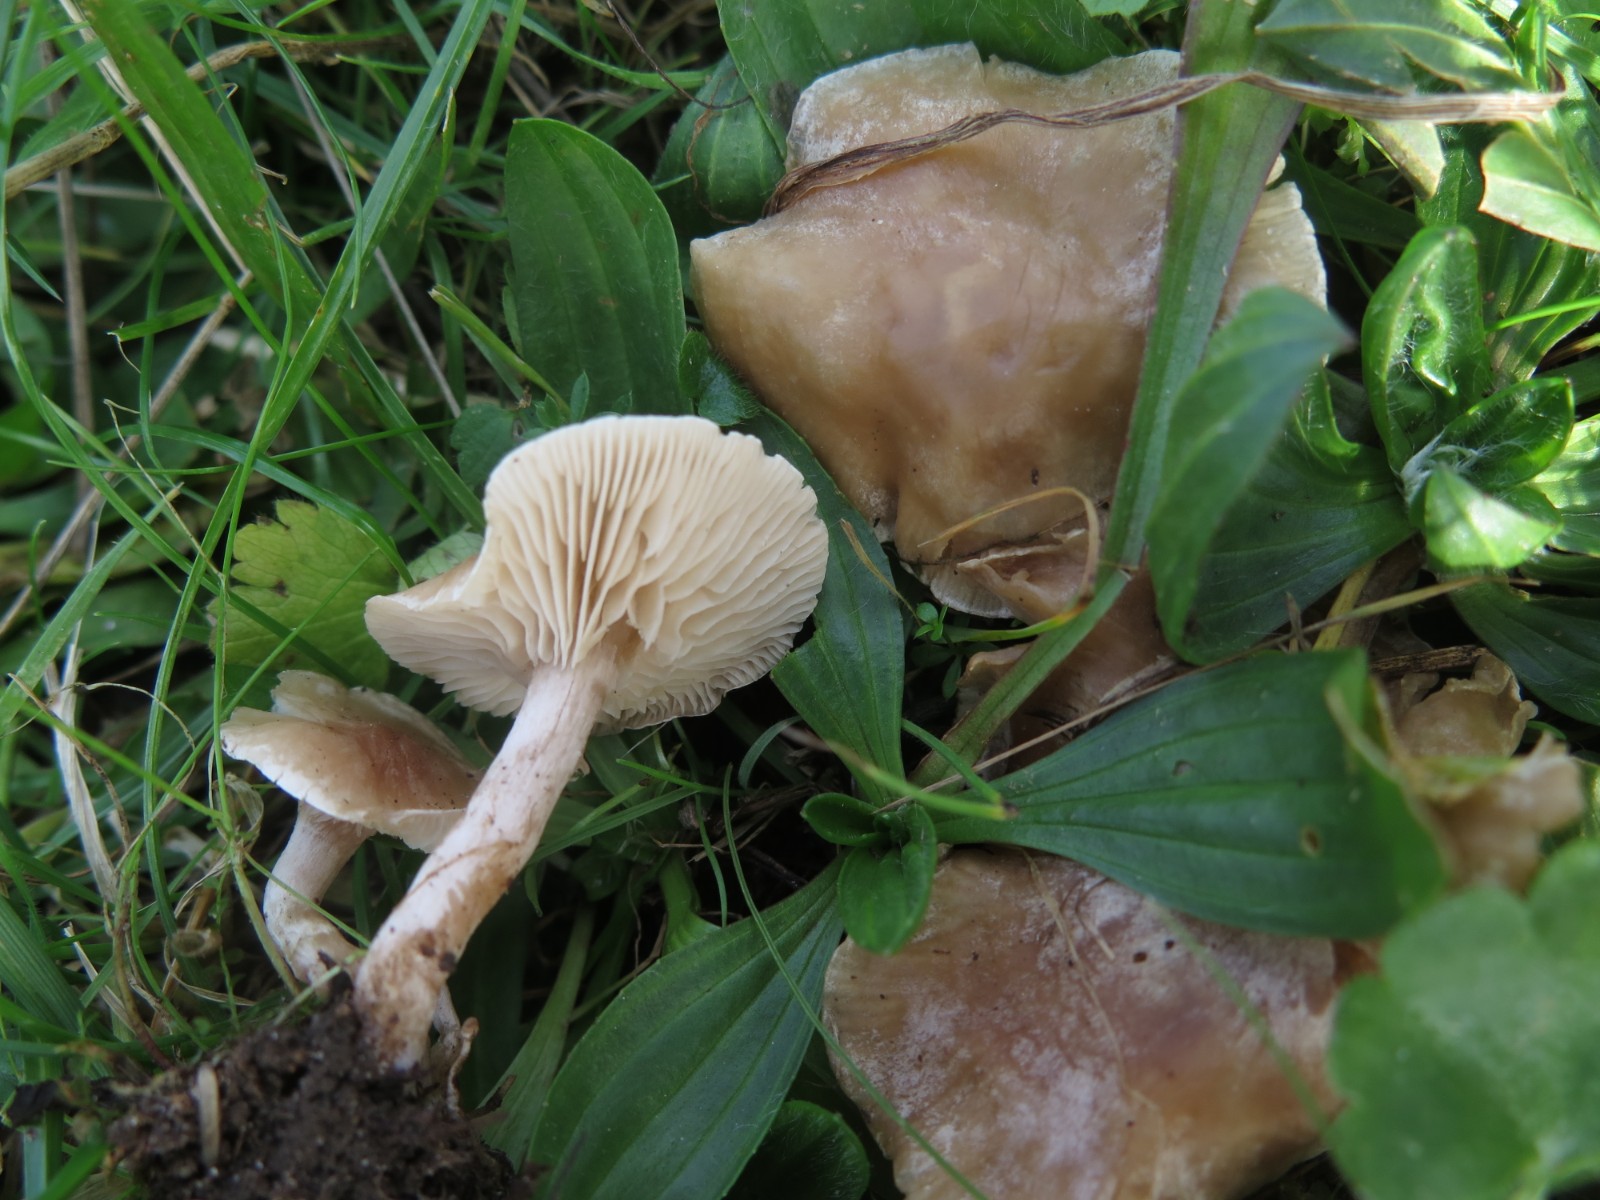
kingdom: Fungi
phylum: Basidiomycota
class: Agaricomycetes
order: Agaricales
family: Tricholomataceae
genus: Clitocybe
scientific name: Clitocybe rivulosa
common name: eng-tragthat
